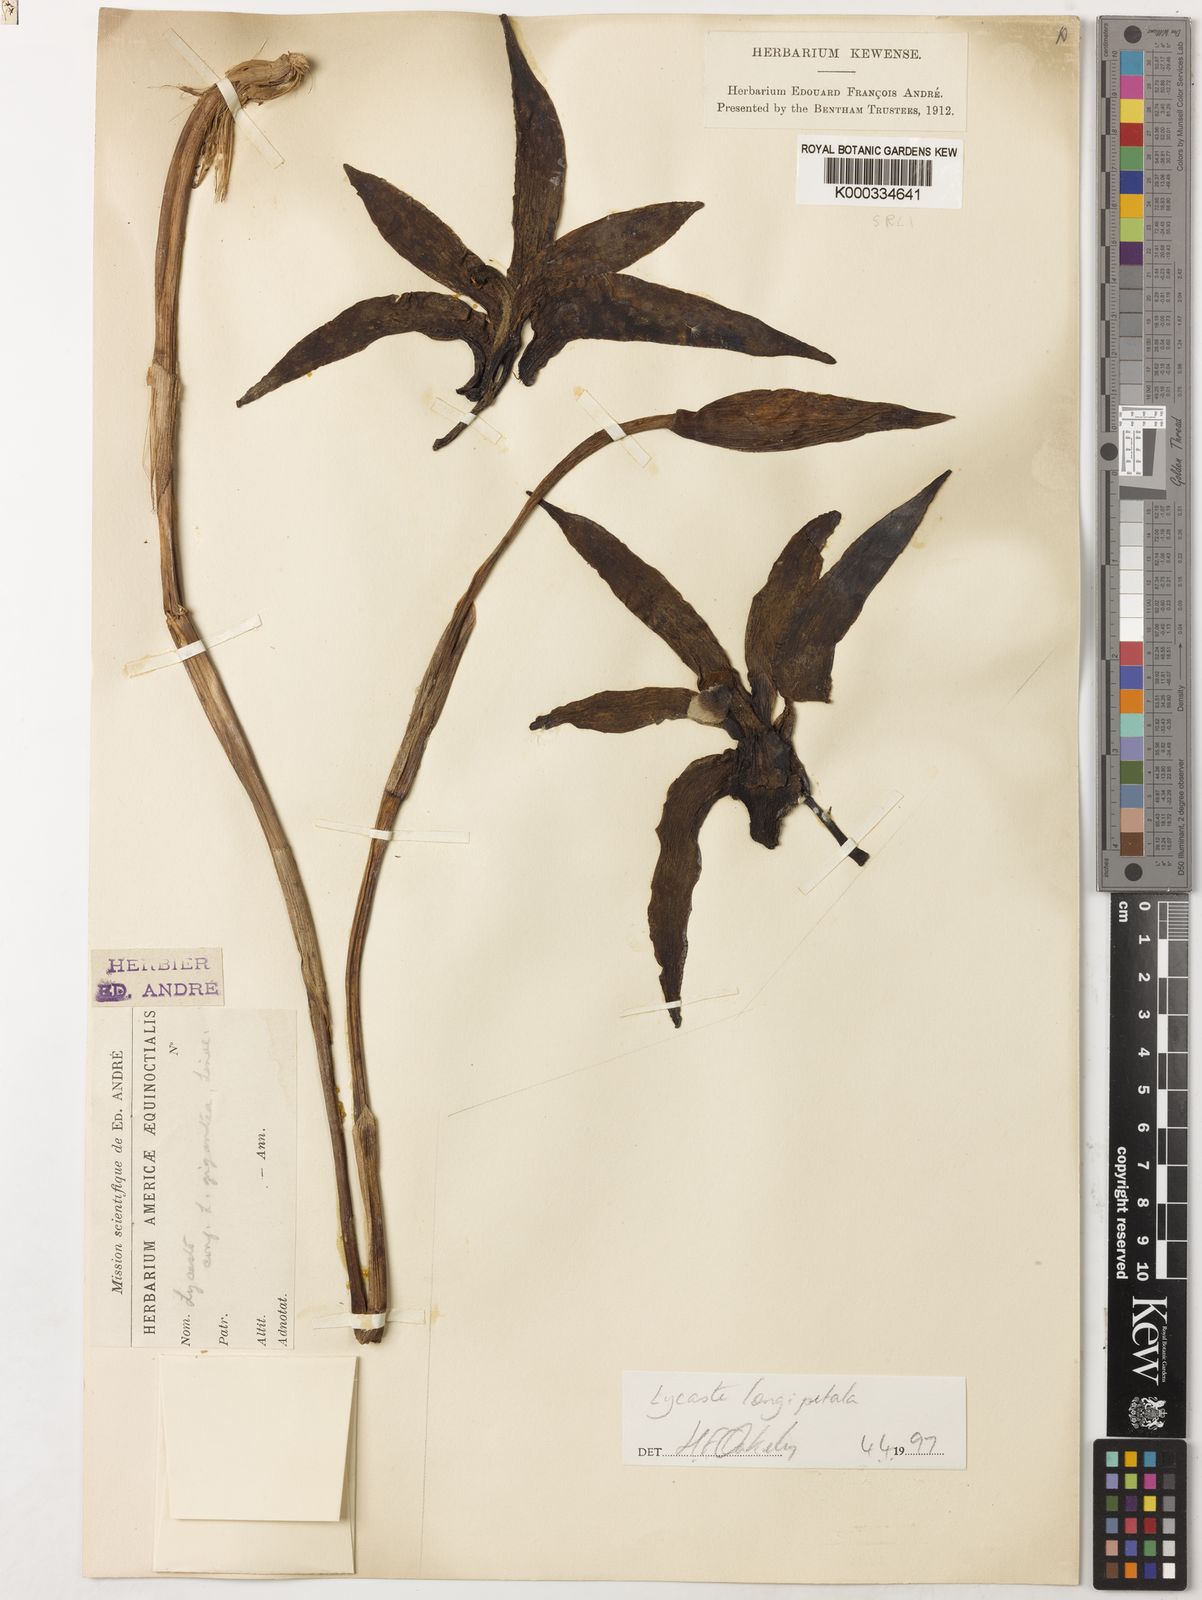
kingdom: Plantae
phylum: Tracheophyta
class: Liliopsida
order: Asparagales
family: Orchidaceae
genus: Ida
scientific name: Ida gigantea
